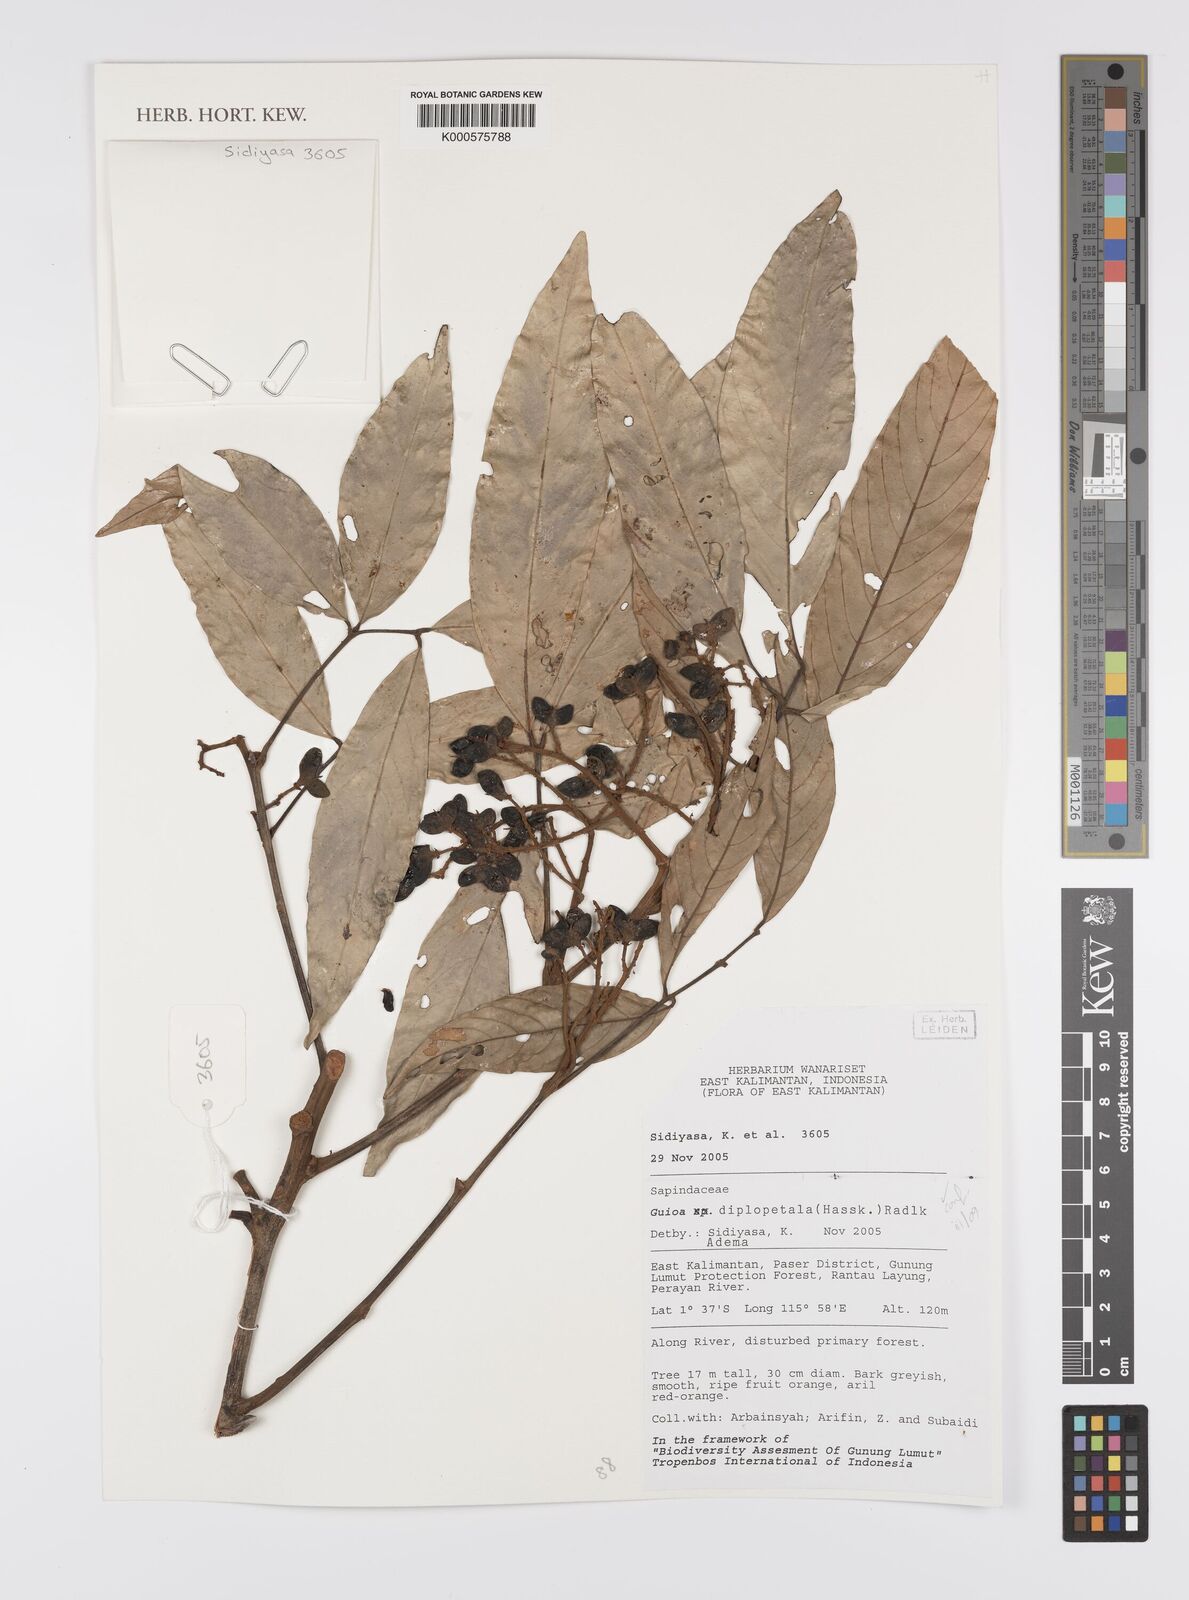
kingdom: Plantae
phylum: Tracheophyta
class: Magnoliopsida
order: Sapindales
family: Sapindaceae
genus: Guioa
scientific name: Guioa diplopetala
